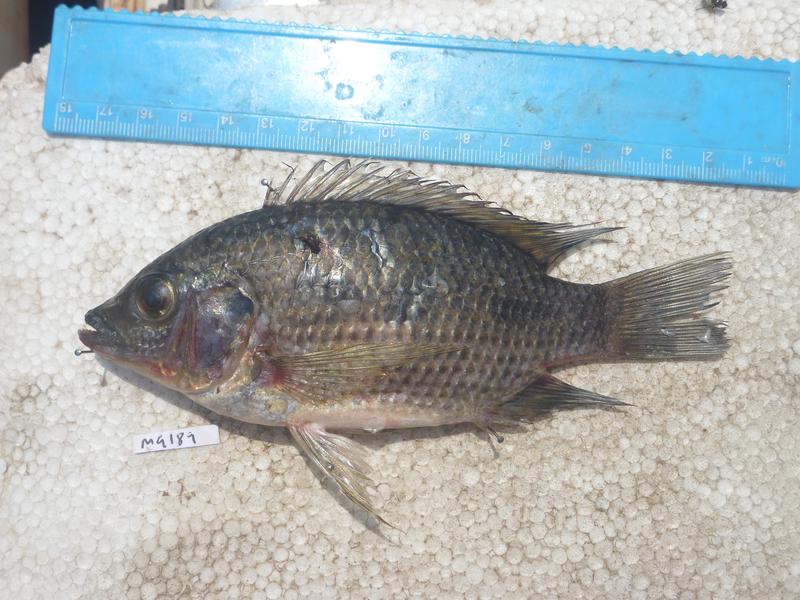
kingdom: Animalia
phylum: Chordata
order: Perciformes
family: Cichlidae
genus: Oreochromis
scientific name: Oreochromis karomo
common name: Karomo
